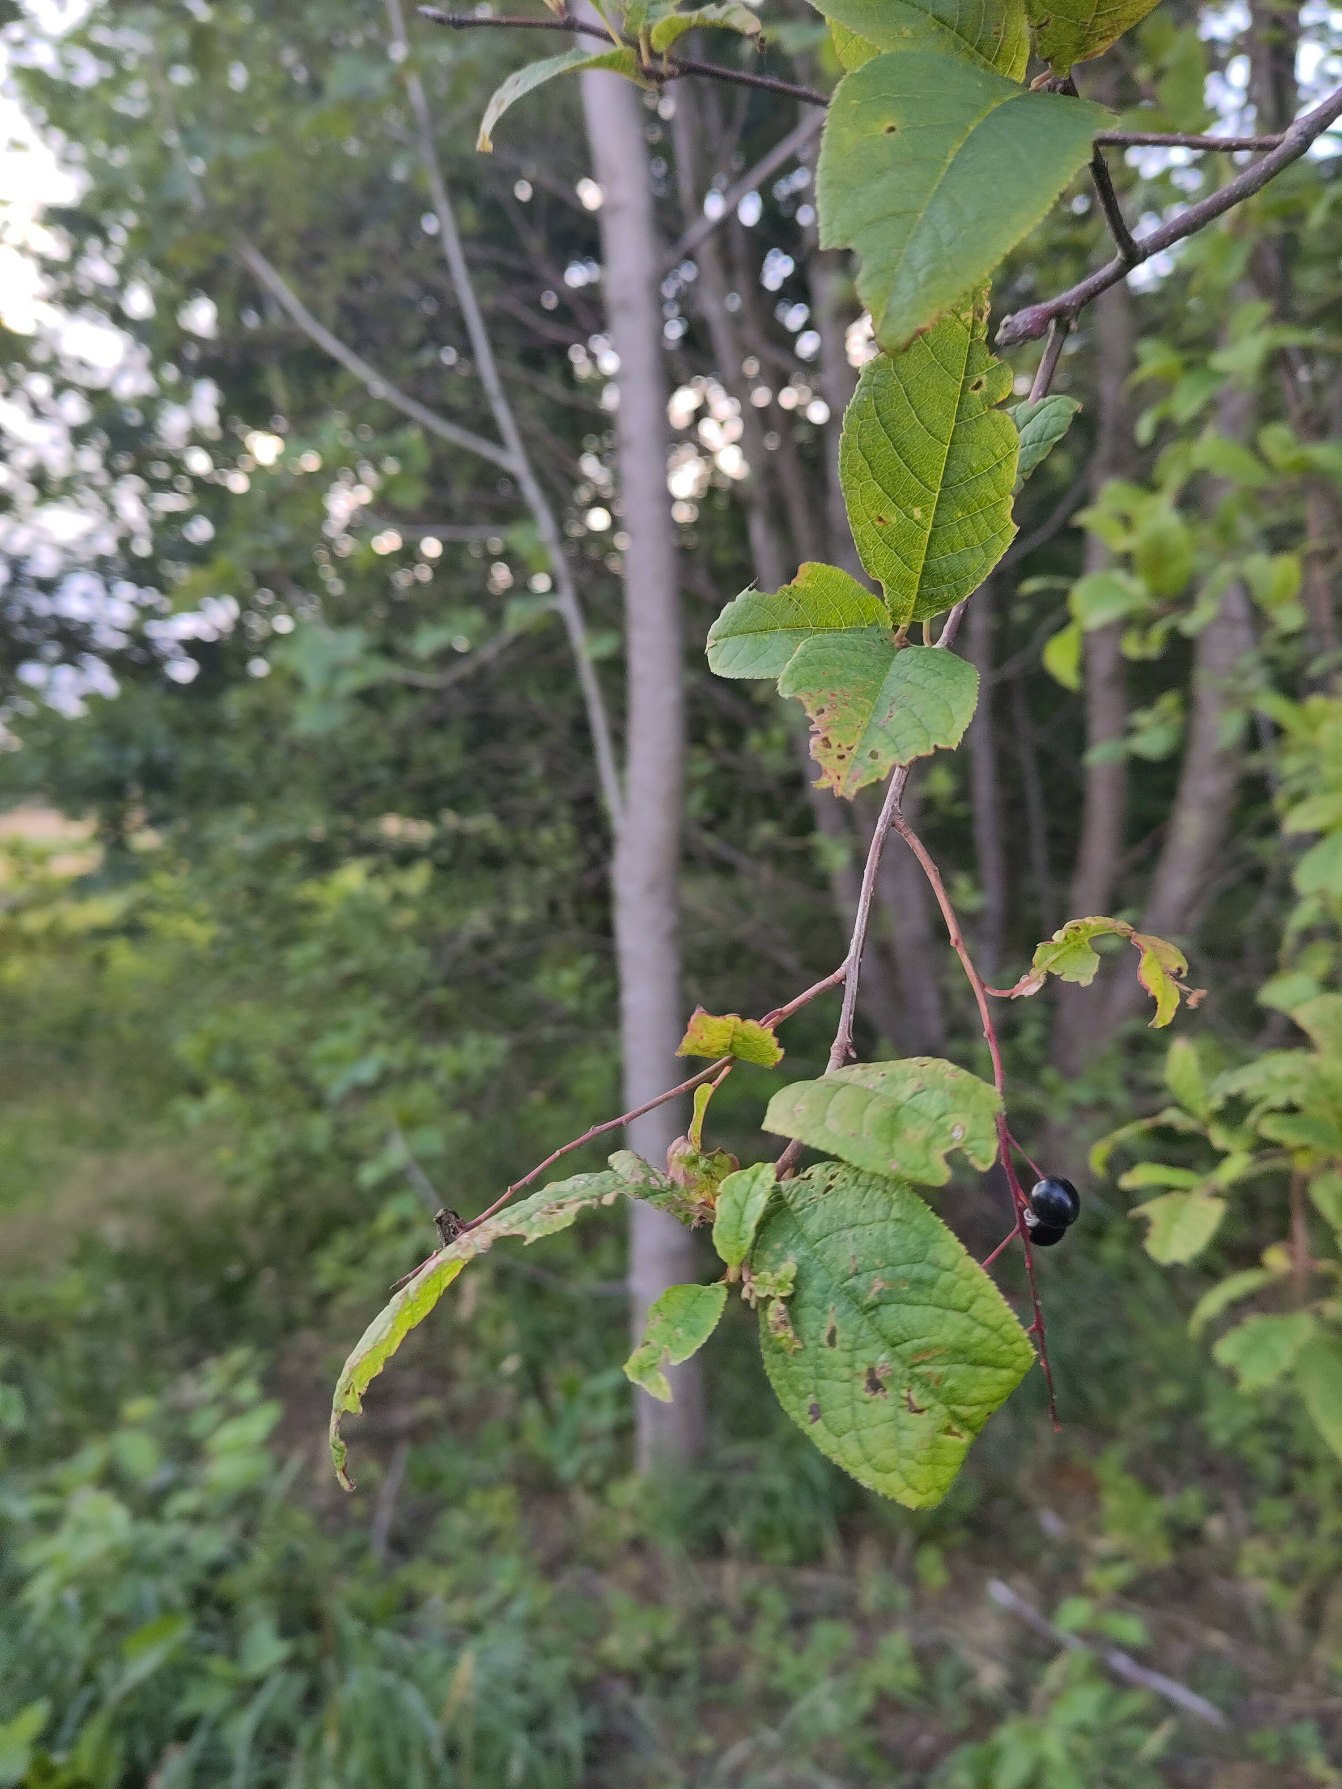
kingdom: Plantae
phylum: Tracheophyta
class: Magnoliopsida
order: Rosales
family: Rosaceae
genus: Prunus
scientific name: Prunus padus
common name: Almindelig hæg
